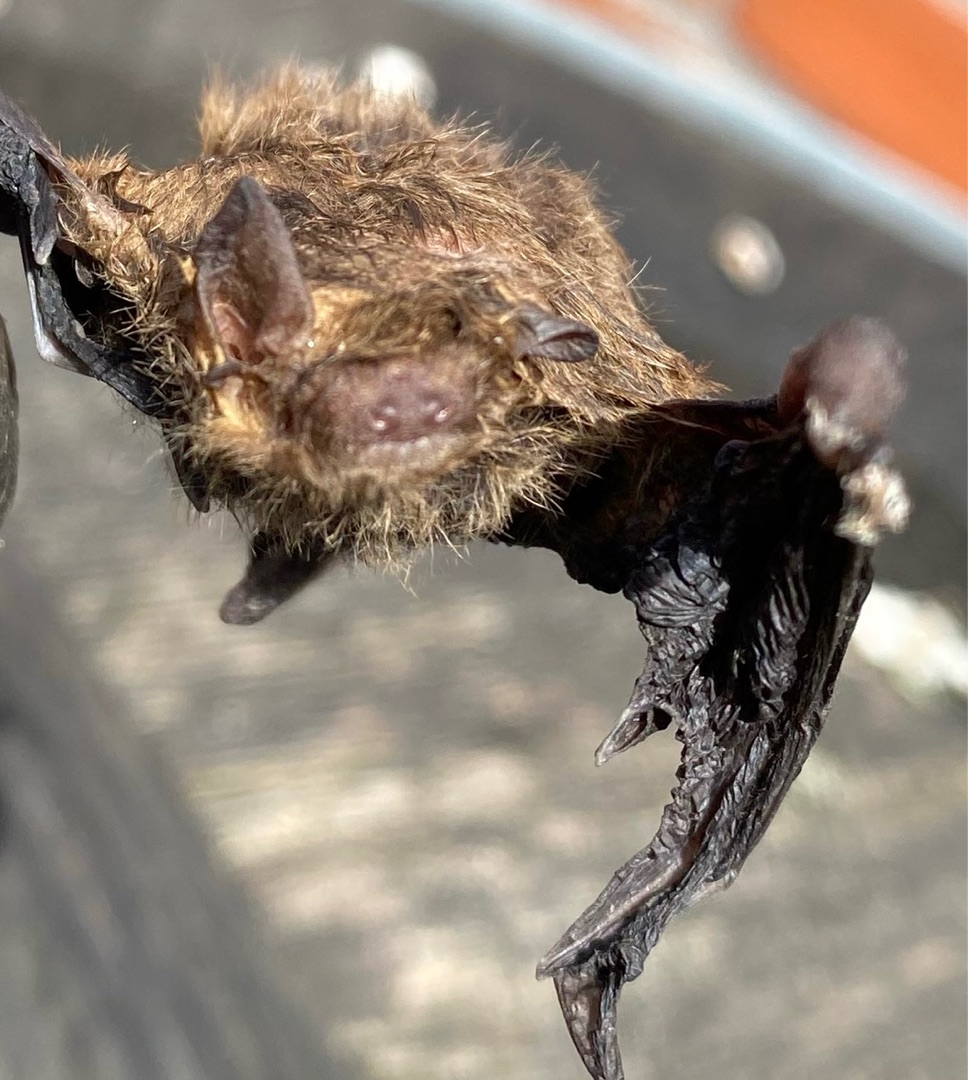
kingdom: Animalia
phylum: Chordata
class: Mammalia
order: Chiroptera
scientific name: Chiroptera
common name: Flagermus
